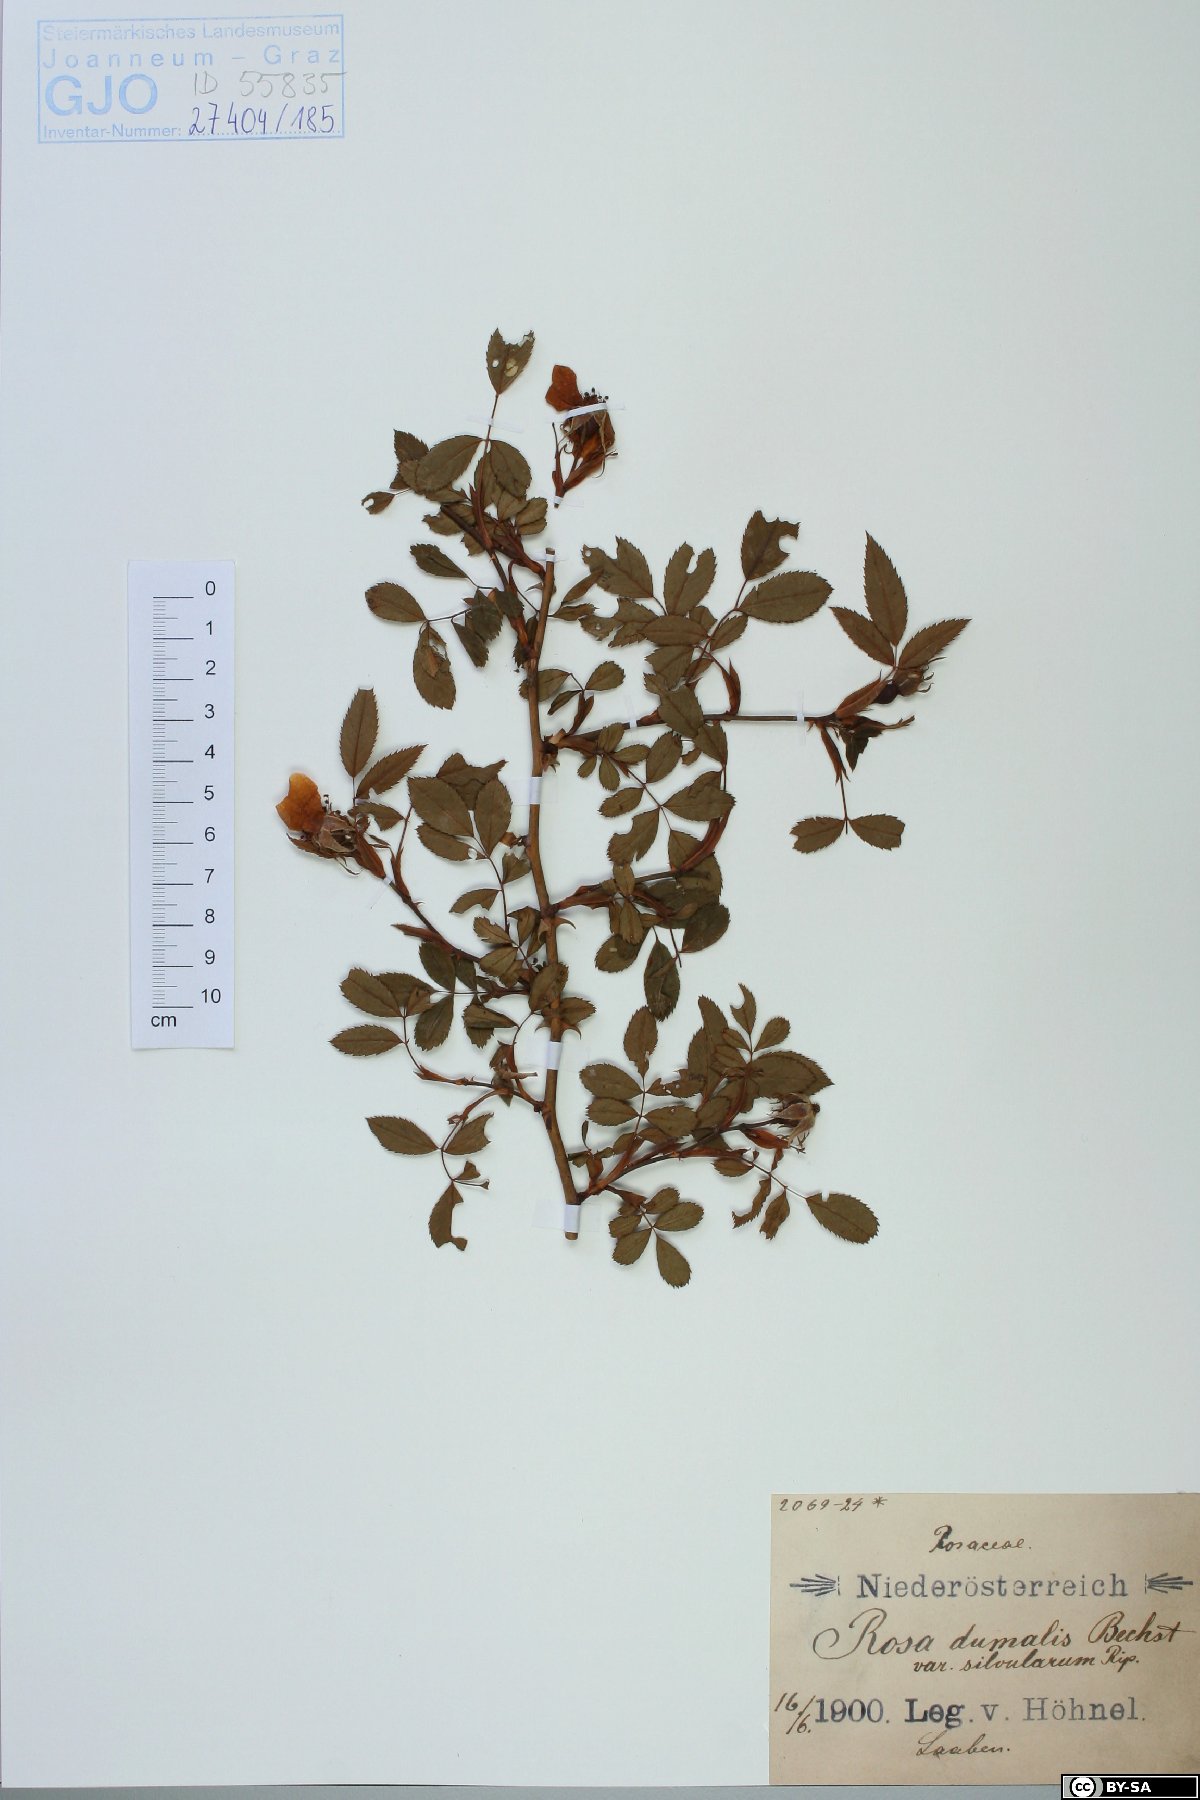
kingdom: Plantae
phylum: Tracheophyta
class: Magnoliopsida
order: Rosales
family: Rosaceae
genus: Rosa
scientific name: Rosa dumalis
